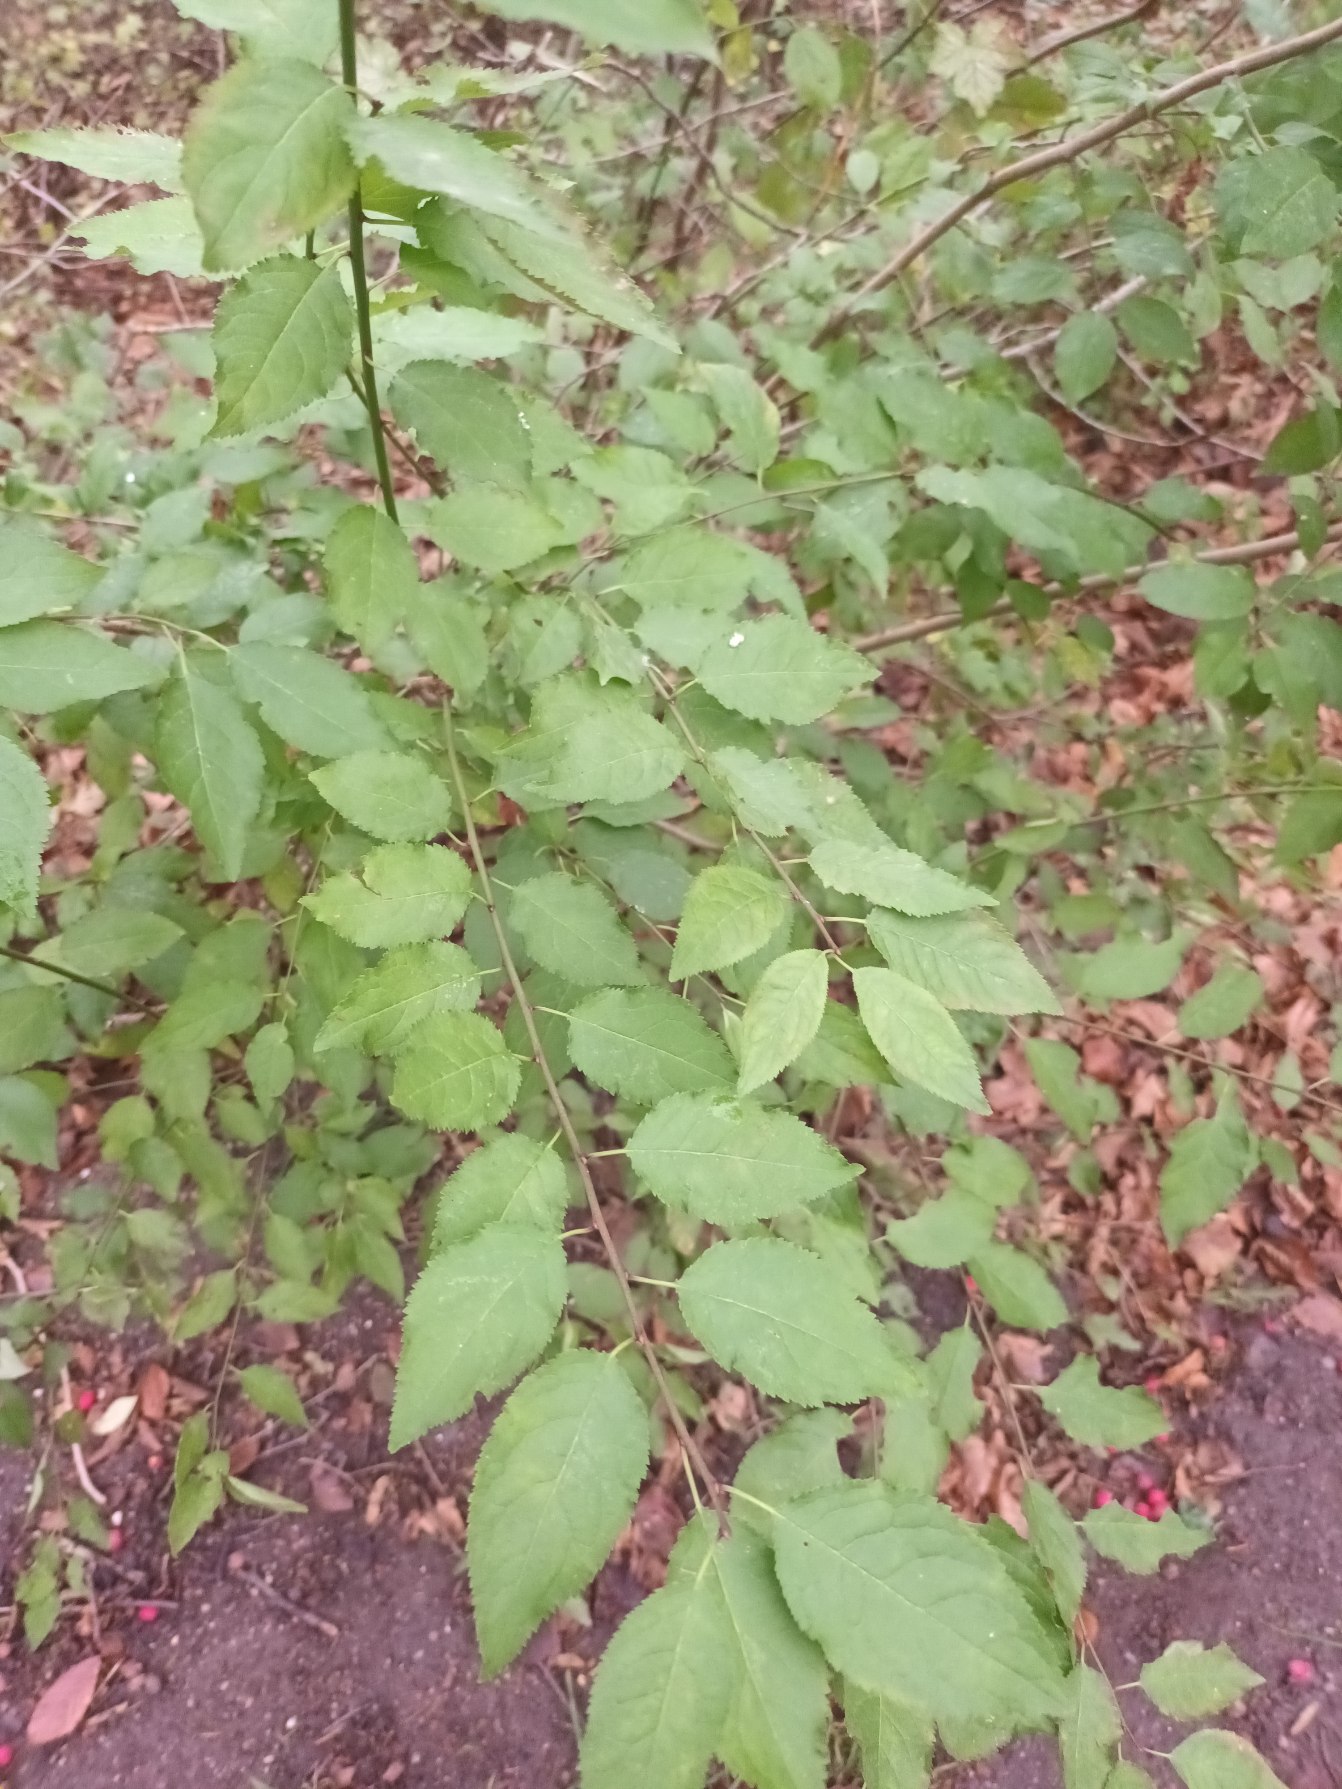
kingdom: Plantae
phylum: Tracheophyta
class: Magnoliopsida
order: Rosales
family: Rosaceae
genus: Prunus
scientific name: Prunus cerasifera
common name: Mirabel
